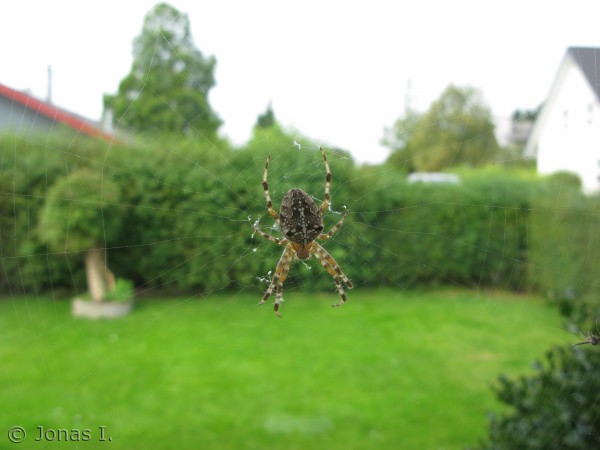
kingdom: Animalia
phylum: Arthropoda
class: Arachnida
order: Araneae
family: Araneidae
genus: Araneus
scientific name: Araneus diadematus
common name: Korsedderkop
